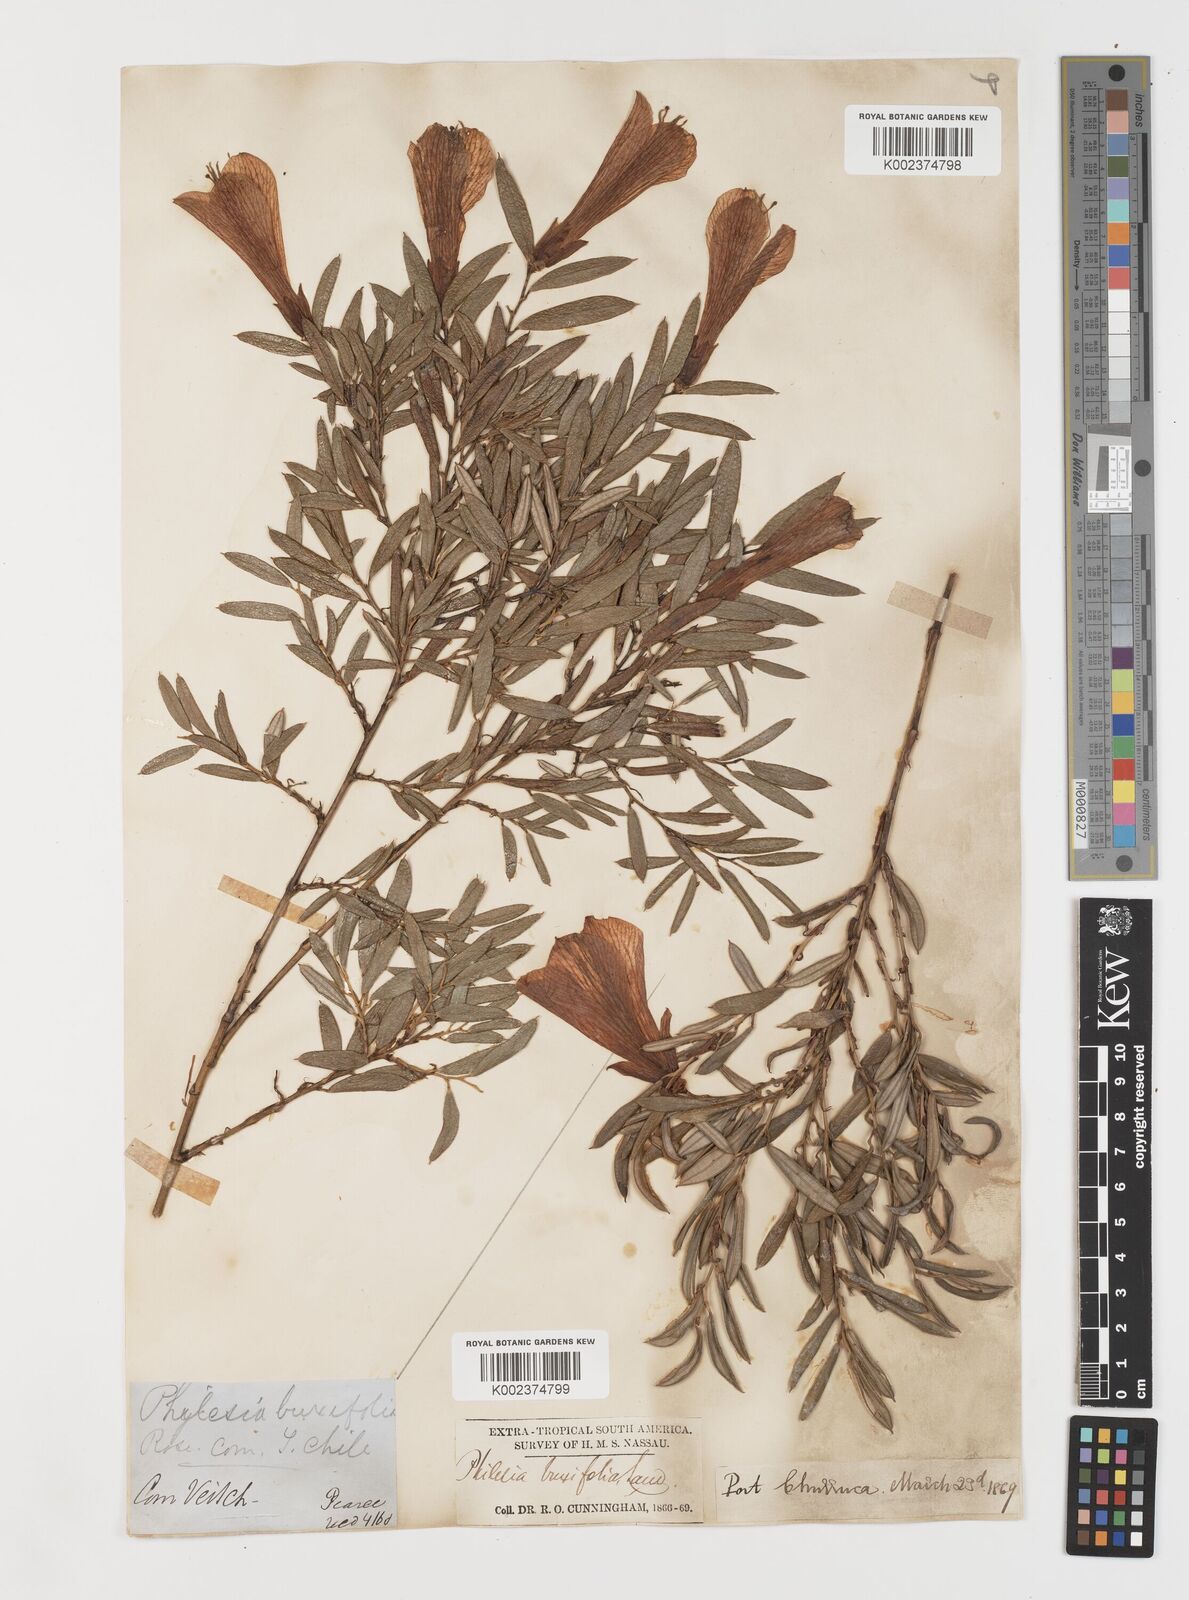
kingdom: Plantae
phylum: Tracheophyta
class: Liliopsida
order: Liliales
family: Philesiaceae
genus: Philesia
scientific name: Philesia magellanica
